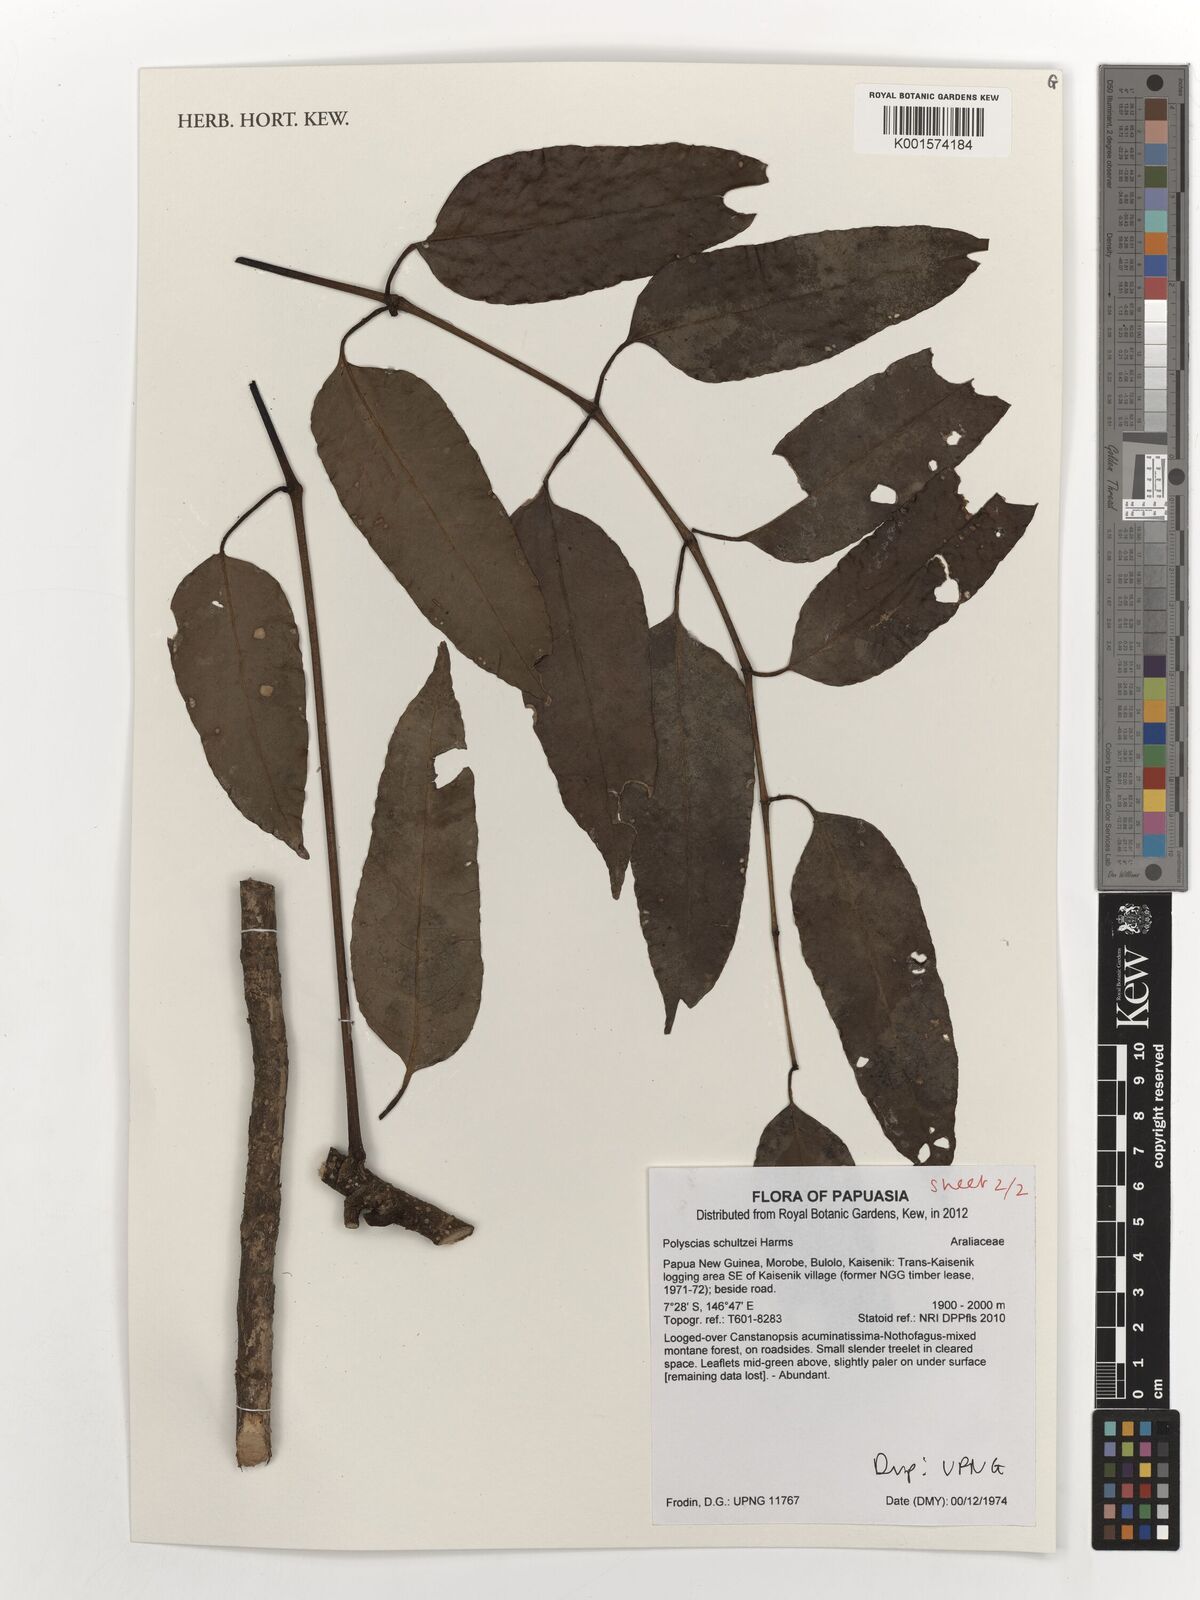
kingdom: Plantae
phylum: Tracheophyta
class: Magnoliopsida
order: Apiales
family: Araliaceae
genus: Polyscias
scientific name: Polyscias schultzei
